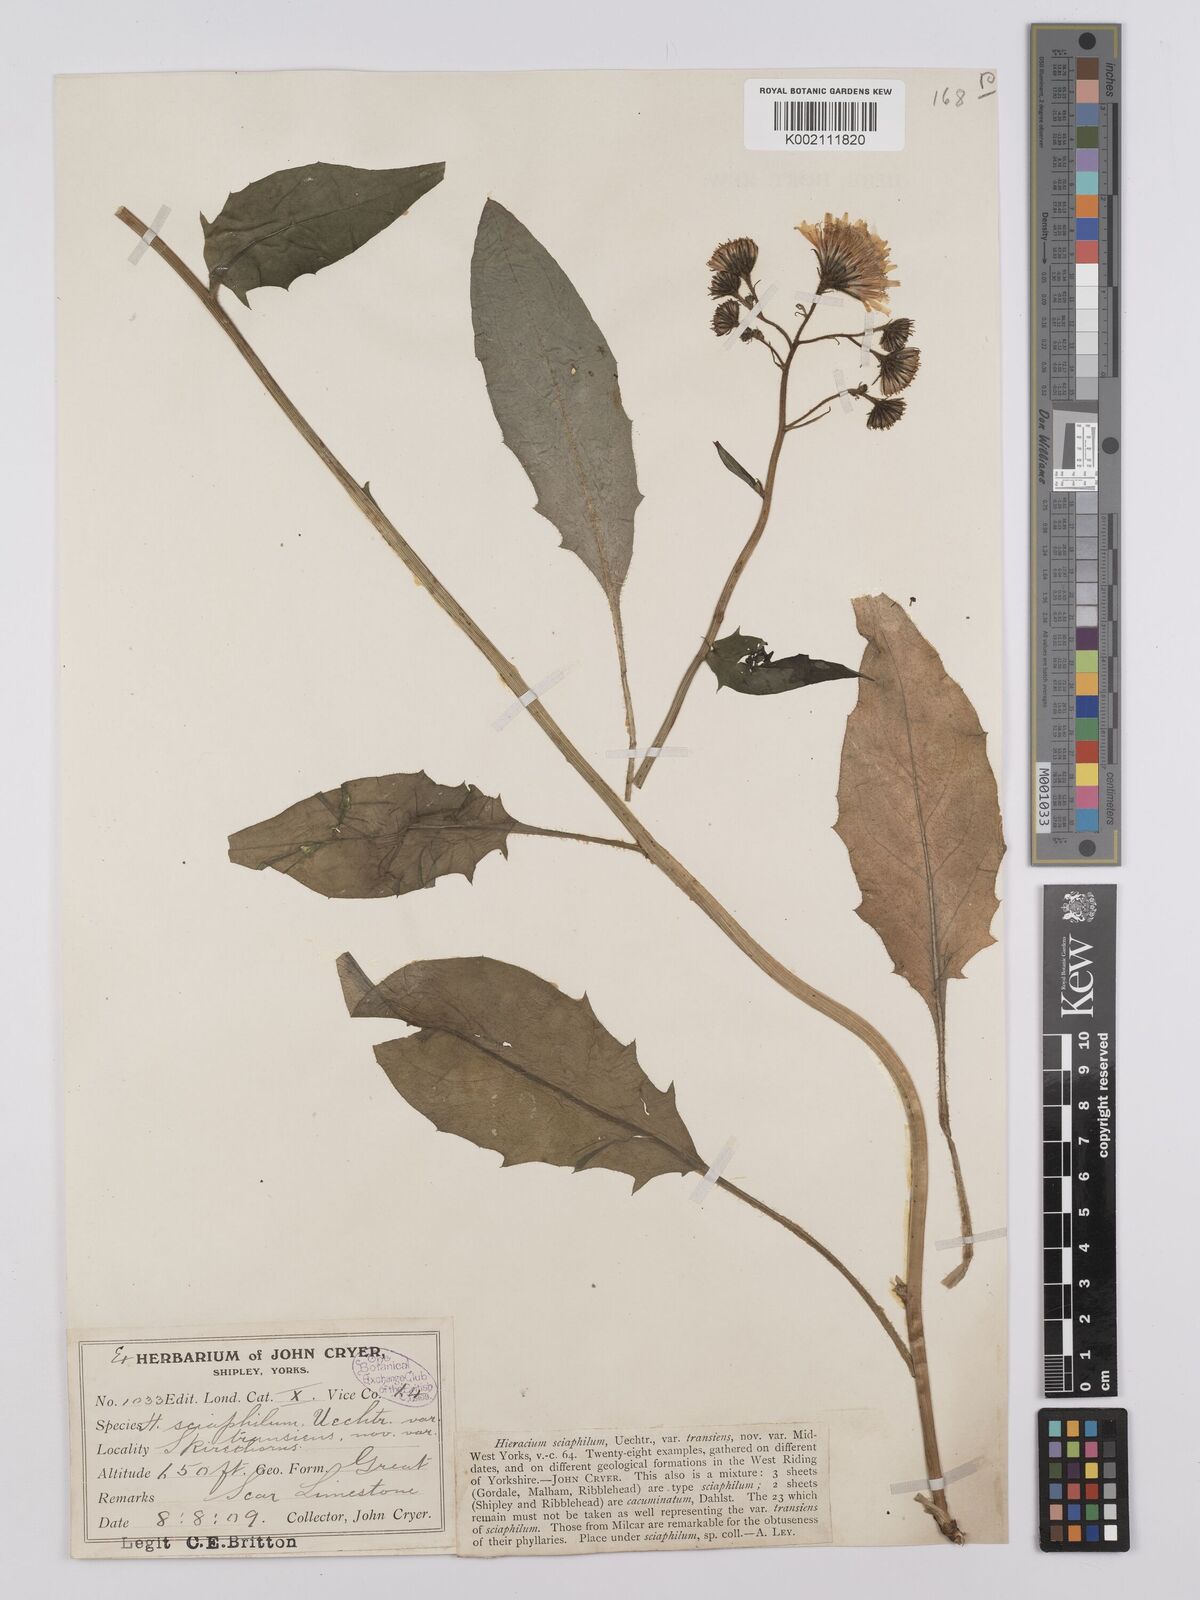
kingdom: Plantae
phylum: Tracheophyta
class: Magnoliopsida
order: Asterales
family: Asteraceae
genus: Hieracium
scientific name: Hieracium lachenalii
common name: Common hawkweed
